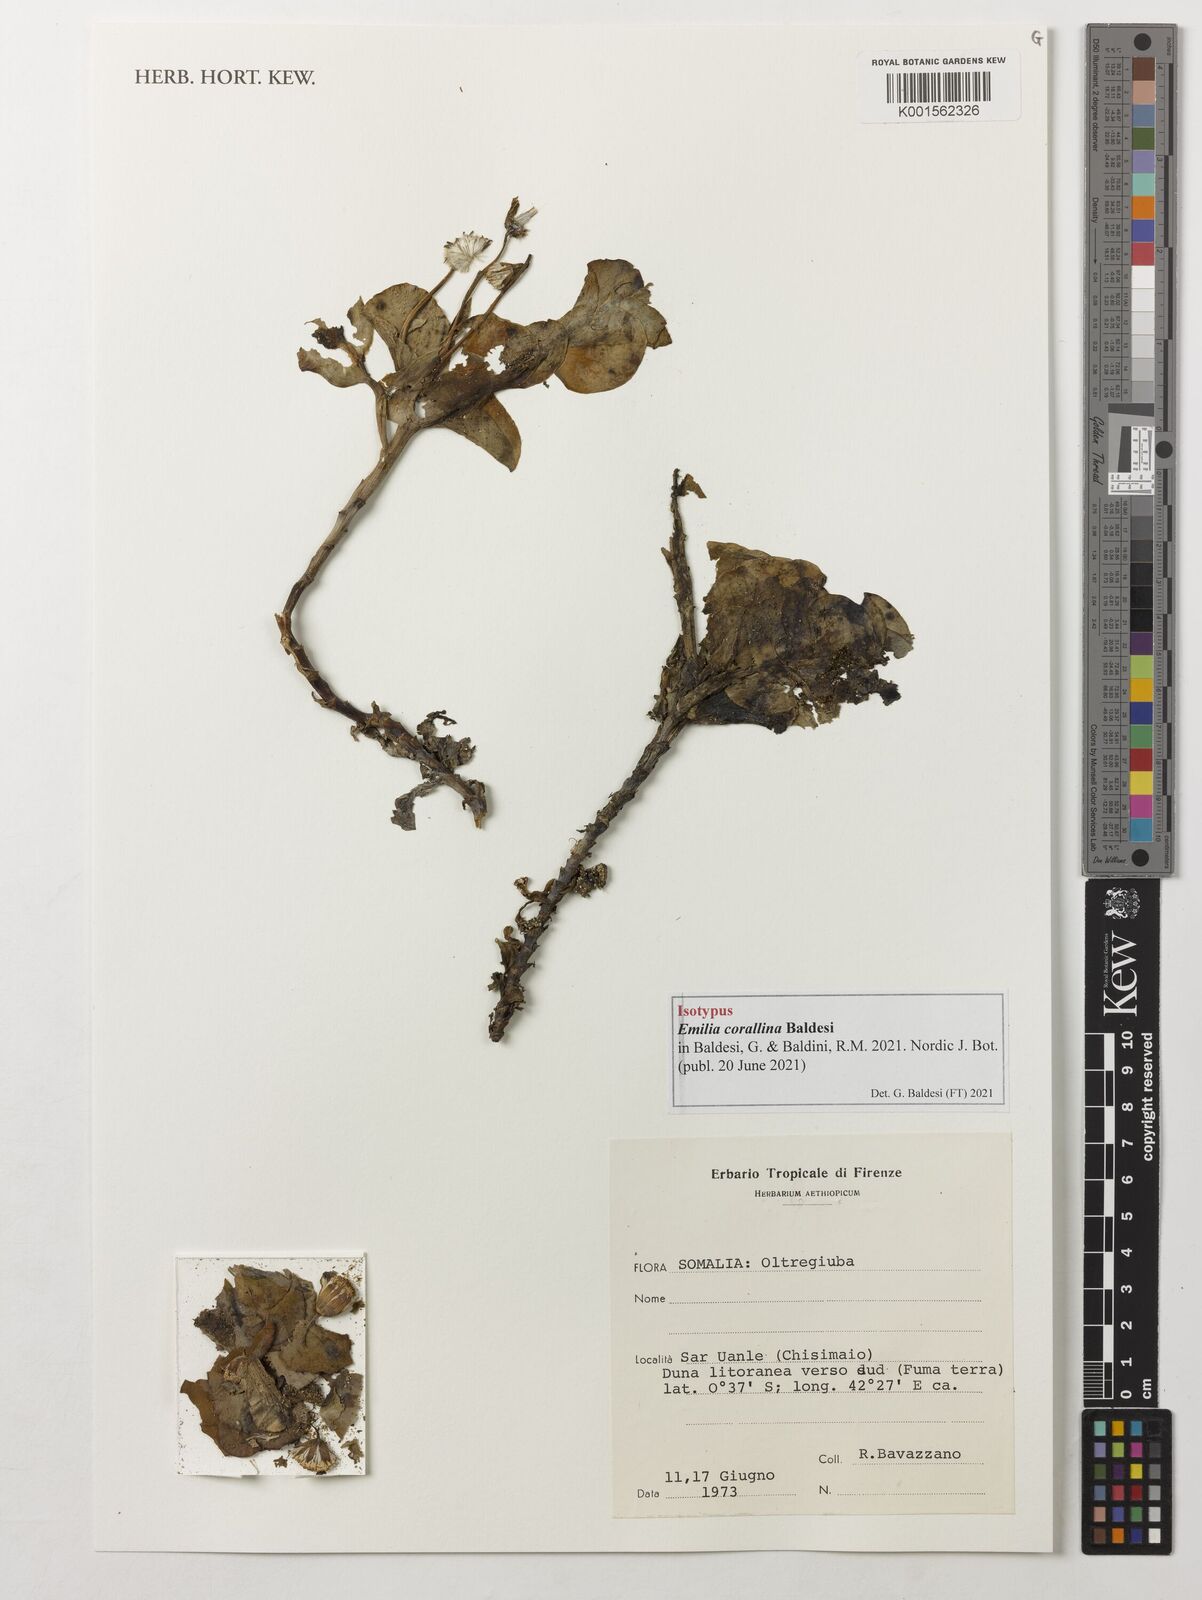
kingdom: Plantae
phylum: Tracheophyta
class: Magnoliopsida
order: Asterales
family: Asteraceae
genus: Emilia
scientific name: Emilia
